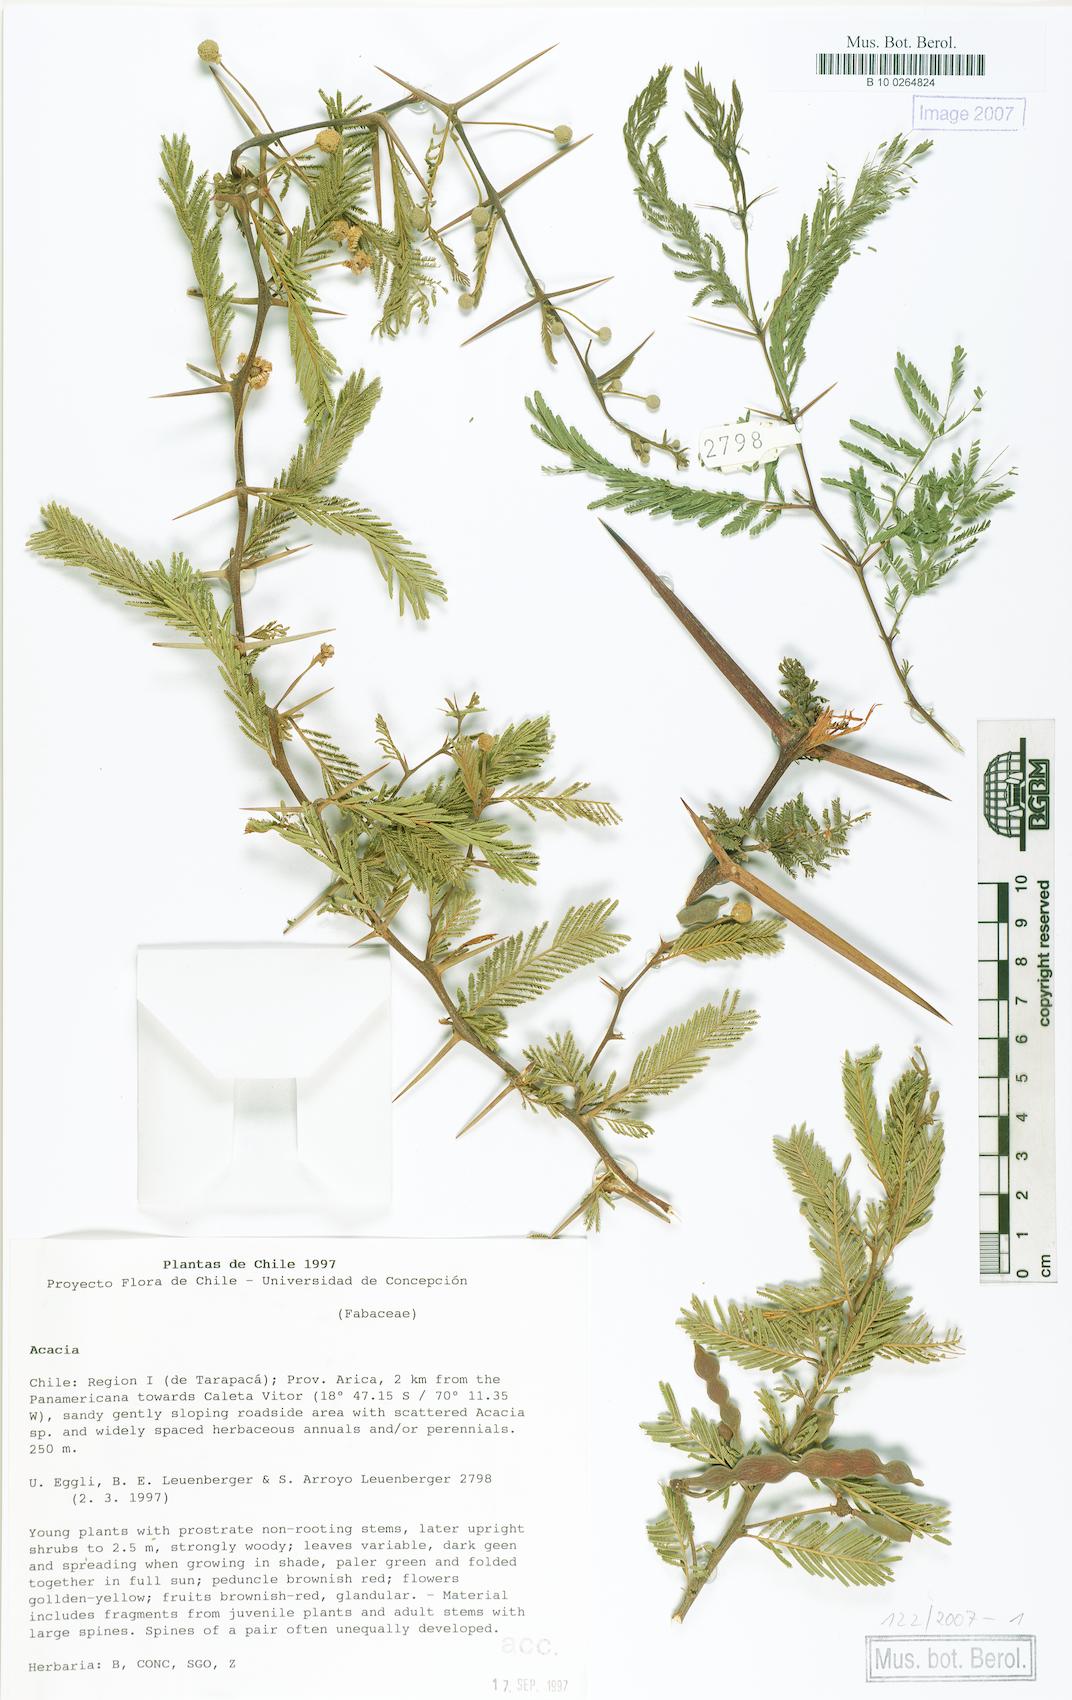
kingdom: Plantae
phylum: Tracheophyta
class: Magnoliopsida
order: Fabales
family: Fabaceae
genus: Acacia
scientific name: Acacia
